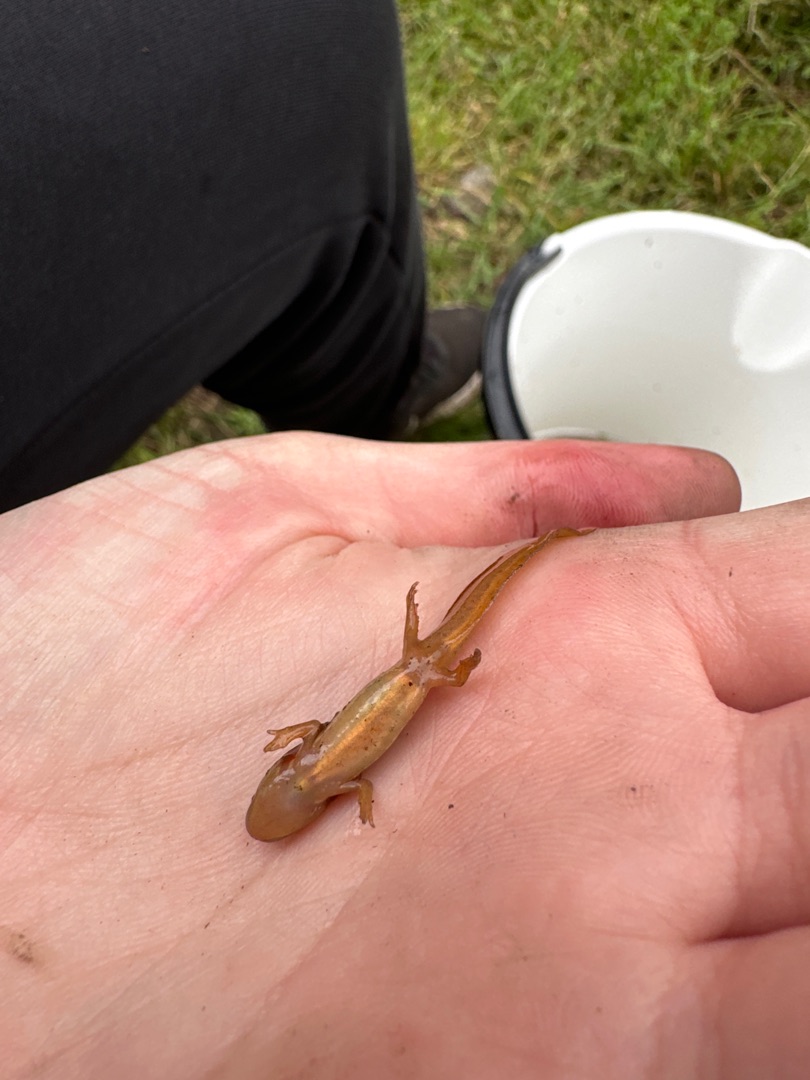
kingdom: Animalia
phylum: Chordata
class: Amphibia
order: Caudata
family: Salamandridae
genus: Lissotriton
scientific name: Lissotriton vulgaris
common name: Lille vandsalamander
